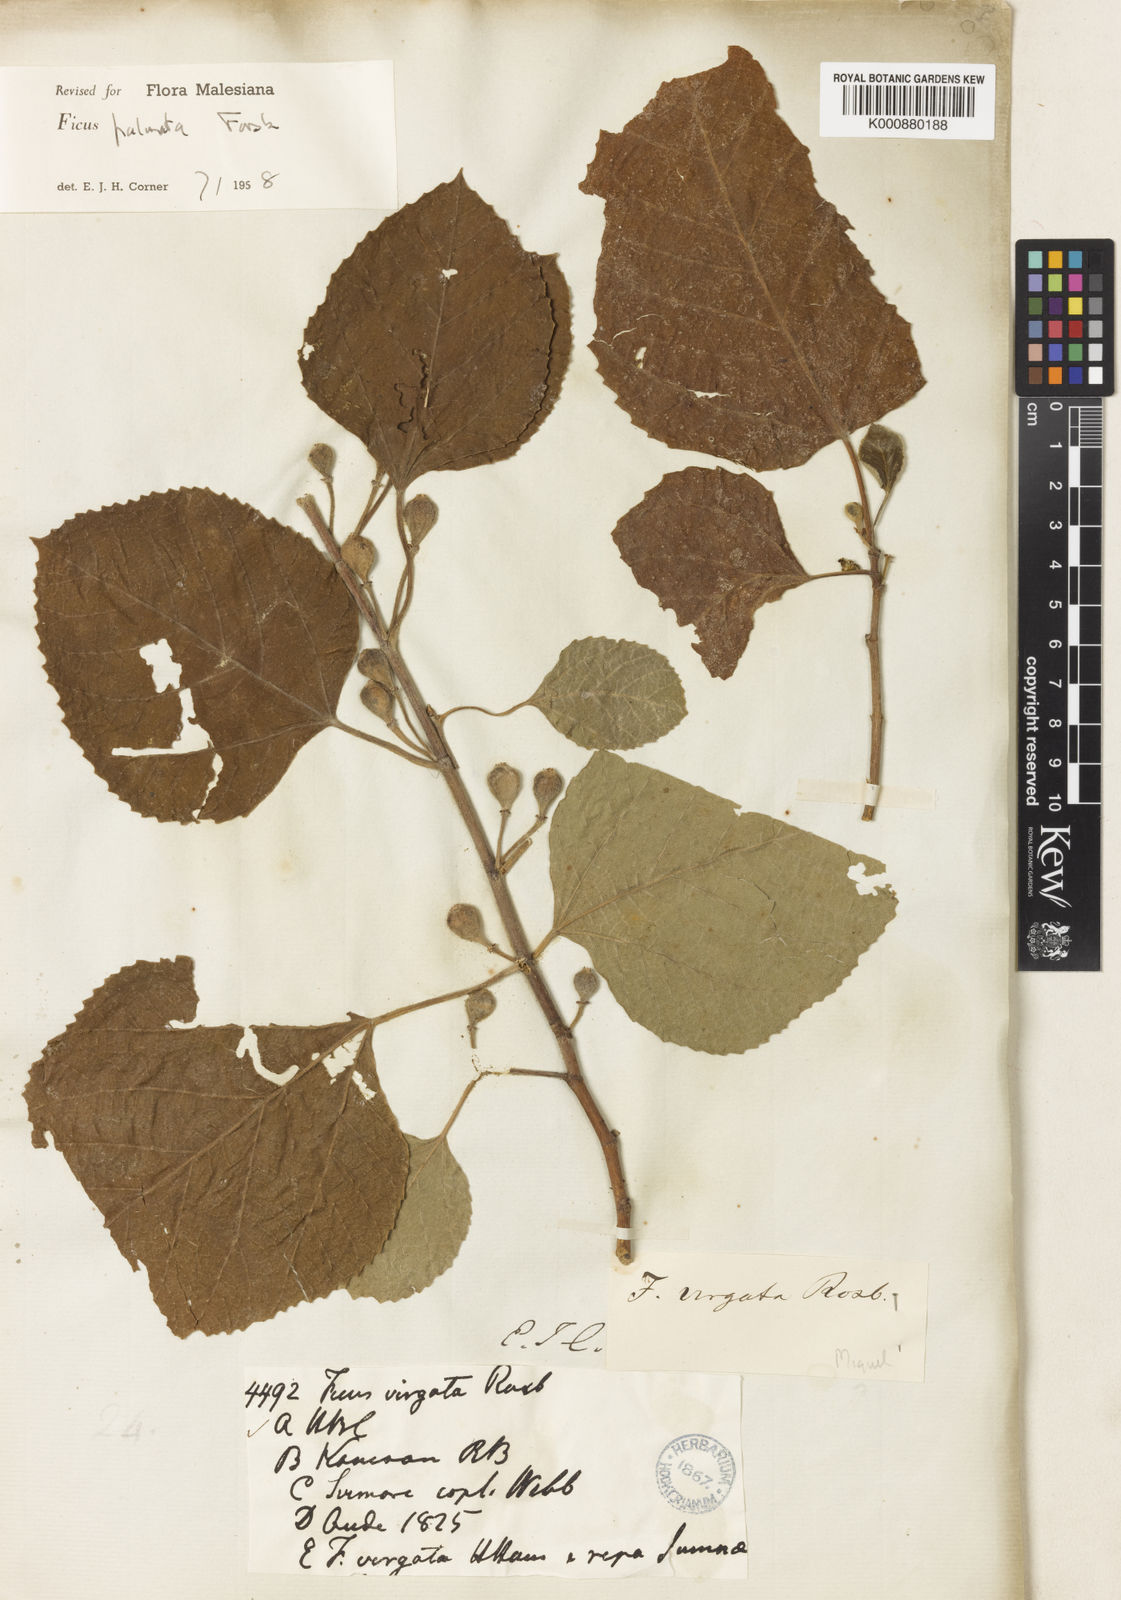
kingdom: Plantae
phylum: Tracheophyta
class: Magnoliopsida
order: Rosales
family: Moraceae
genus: Ficus
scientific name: Ficus palmata
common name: Punjab fig
